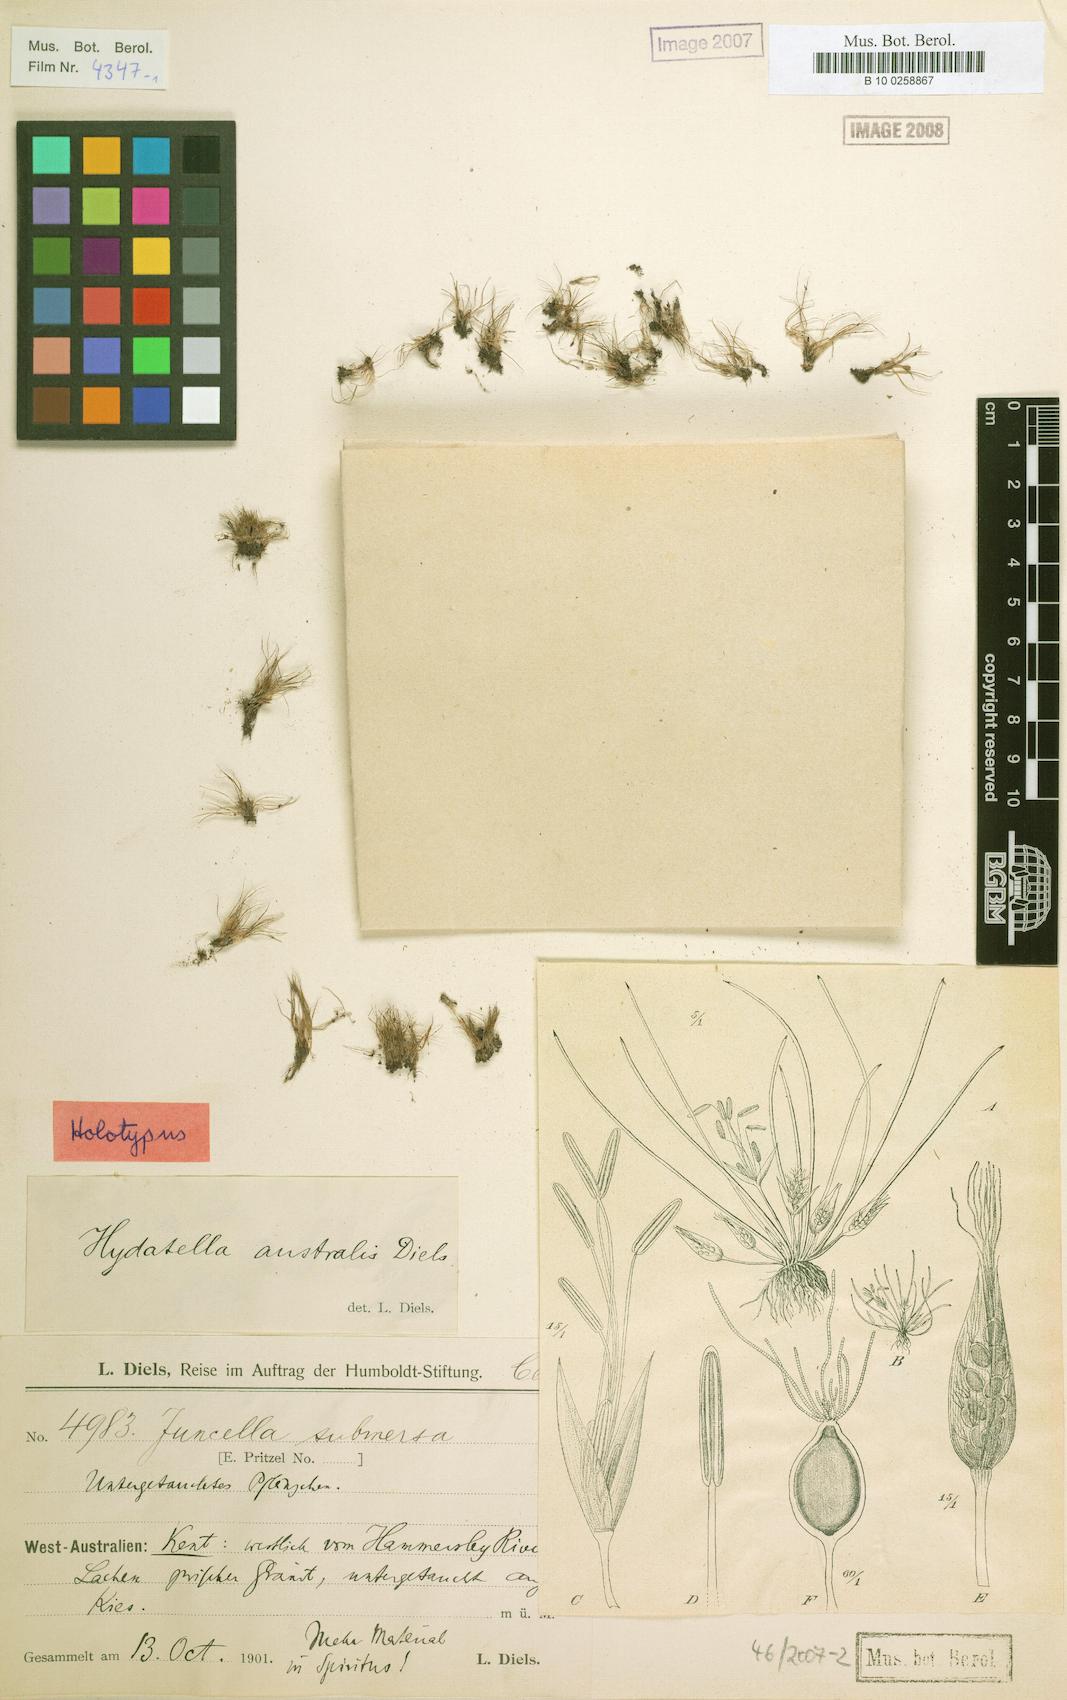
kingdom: Plantae
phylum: Tracheophyta
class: Magnoliopsida
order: Nymphaeales
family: Hydatellaceae
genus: Trithuria
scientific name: Trithuria australis
